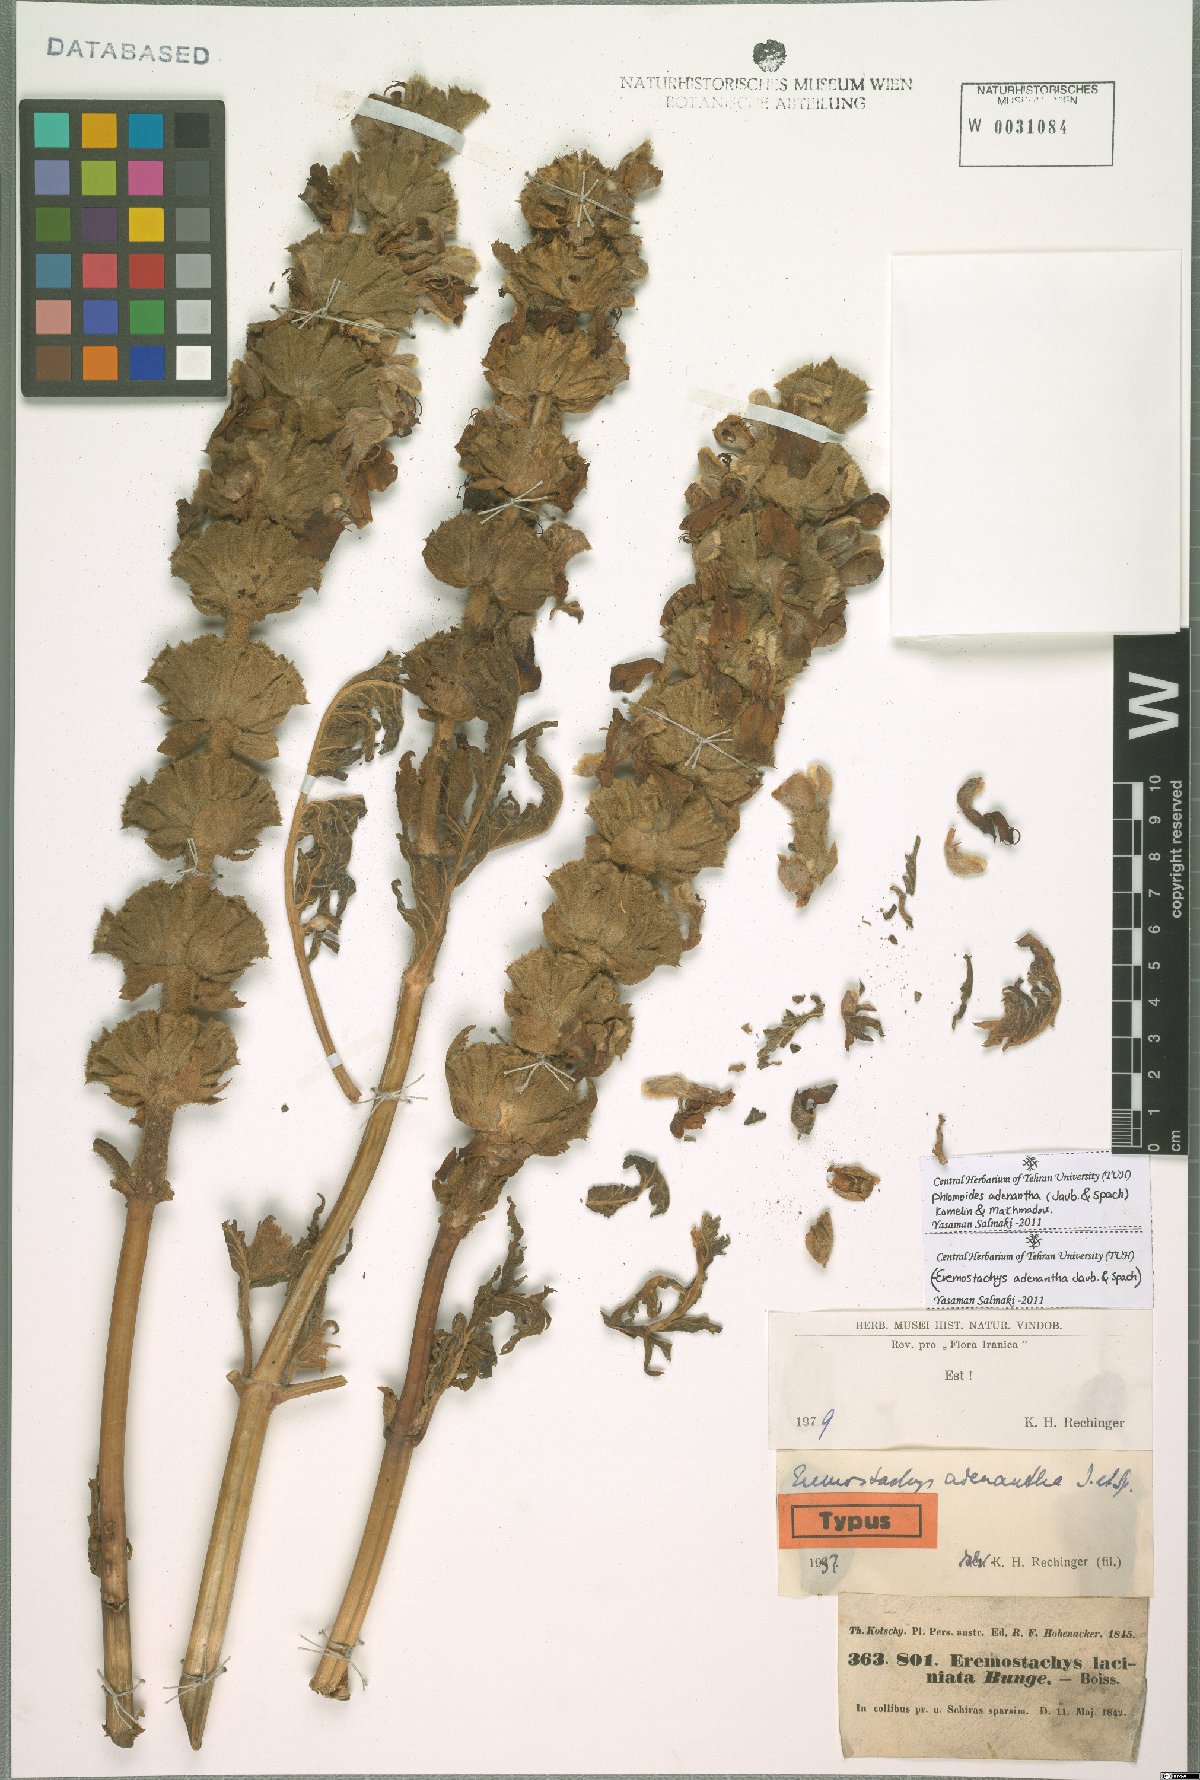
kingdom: Plantae
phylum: Tracheophyta
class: Magnoliopsida
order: Lamiales
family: Lamiaceae
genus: Phlomoides
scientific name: Phlomoides adenantha
